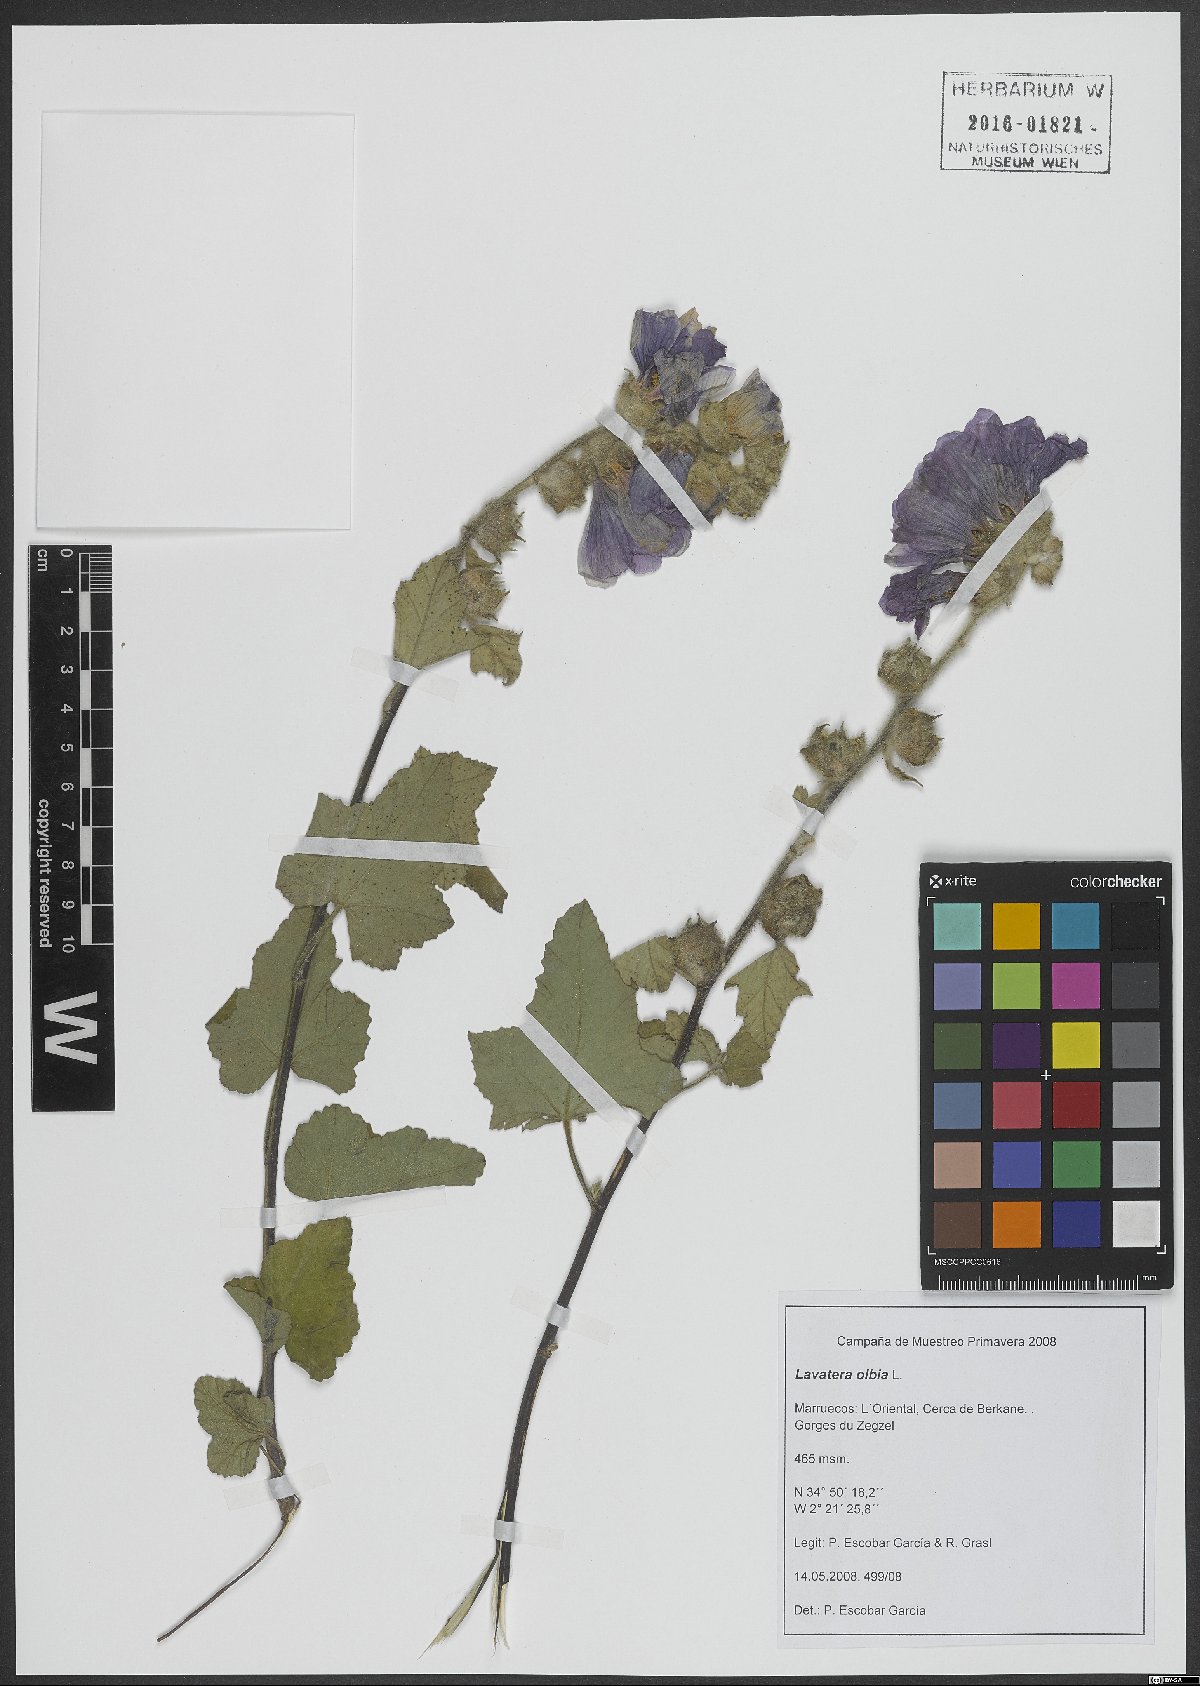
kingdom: Plantae
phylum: Tracheophyta
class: Magnoliopsida
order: Malvales
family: Malvaceae
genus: Malva
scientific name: Malva olbia
